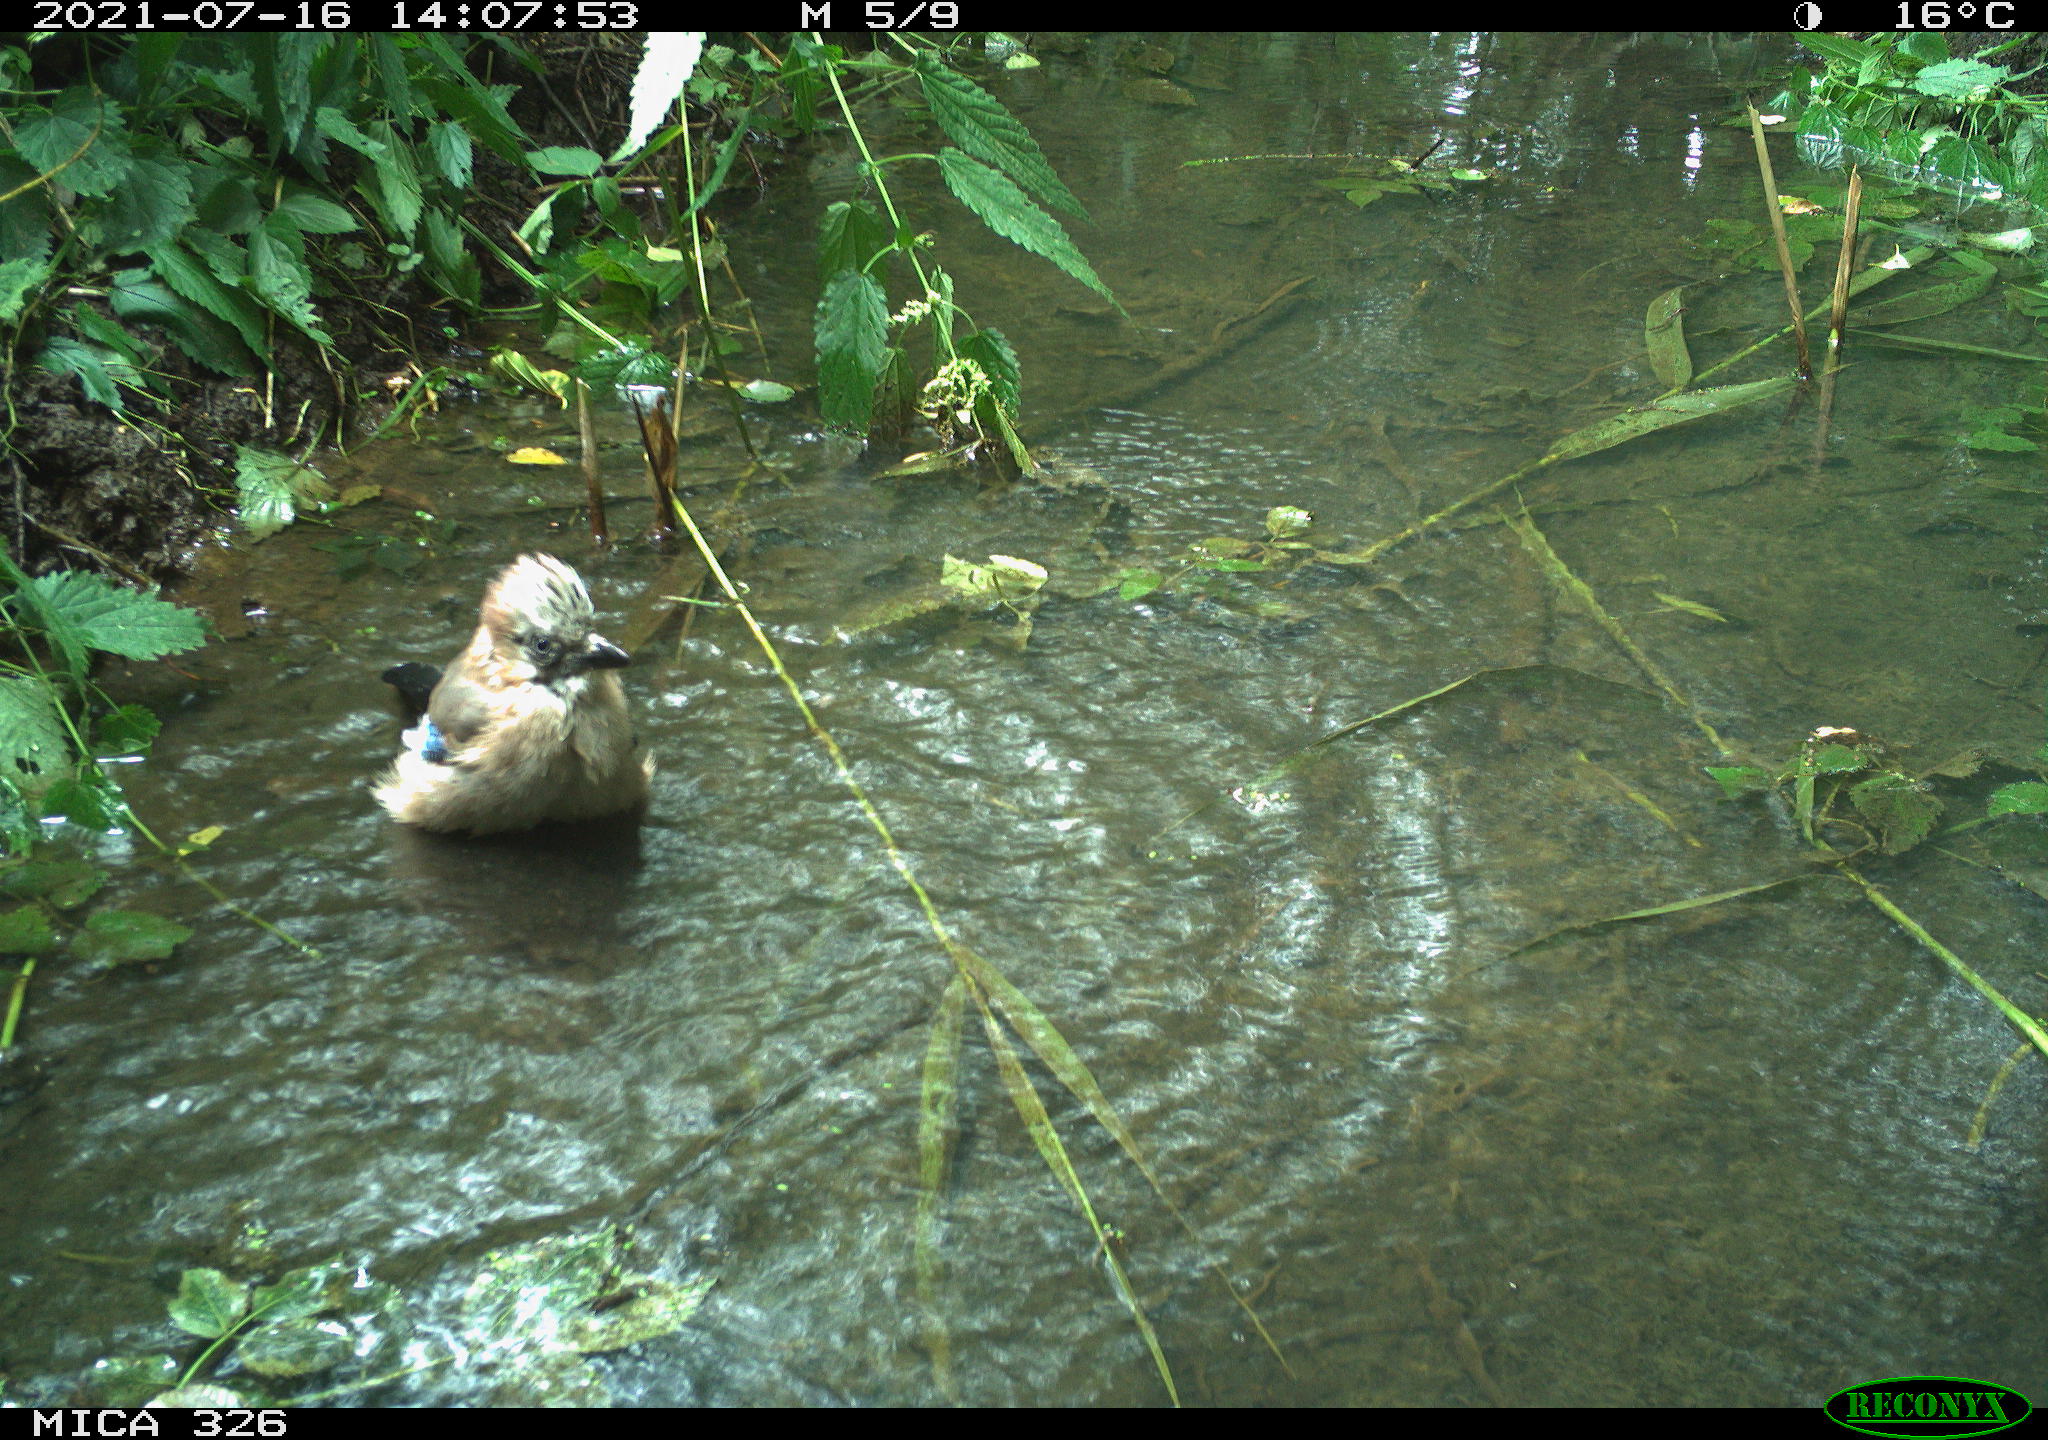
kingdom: Animalia
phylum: Chordata
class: Aves
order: Passeriformes
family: Corvidae
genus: Garrulus
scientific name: Garrulus glandarius
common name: Eurasian jay
